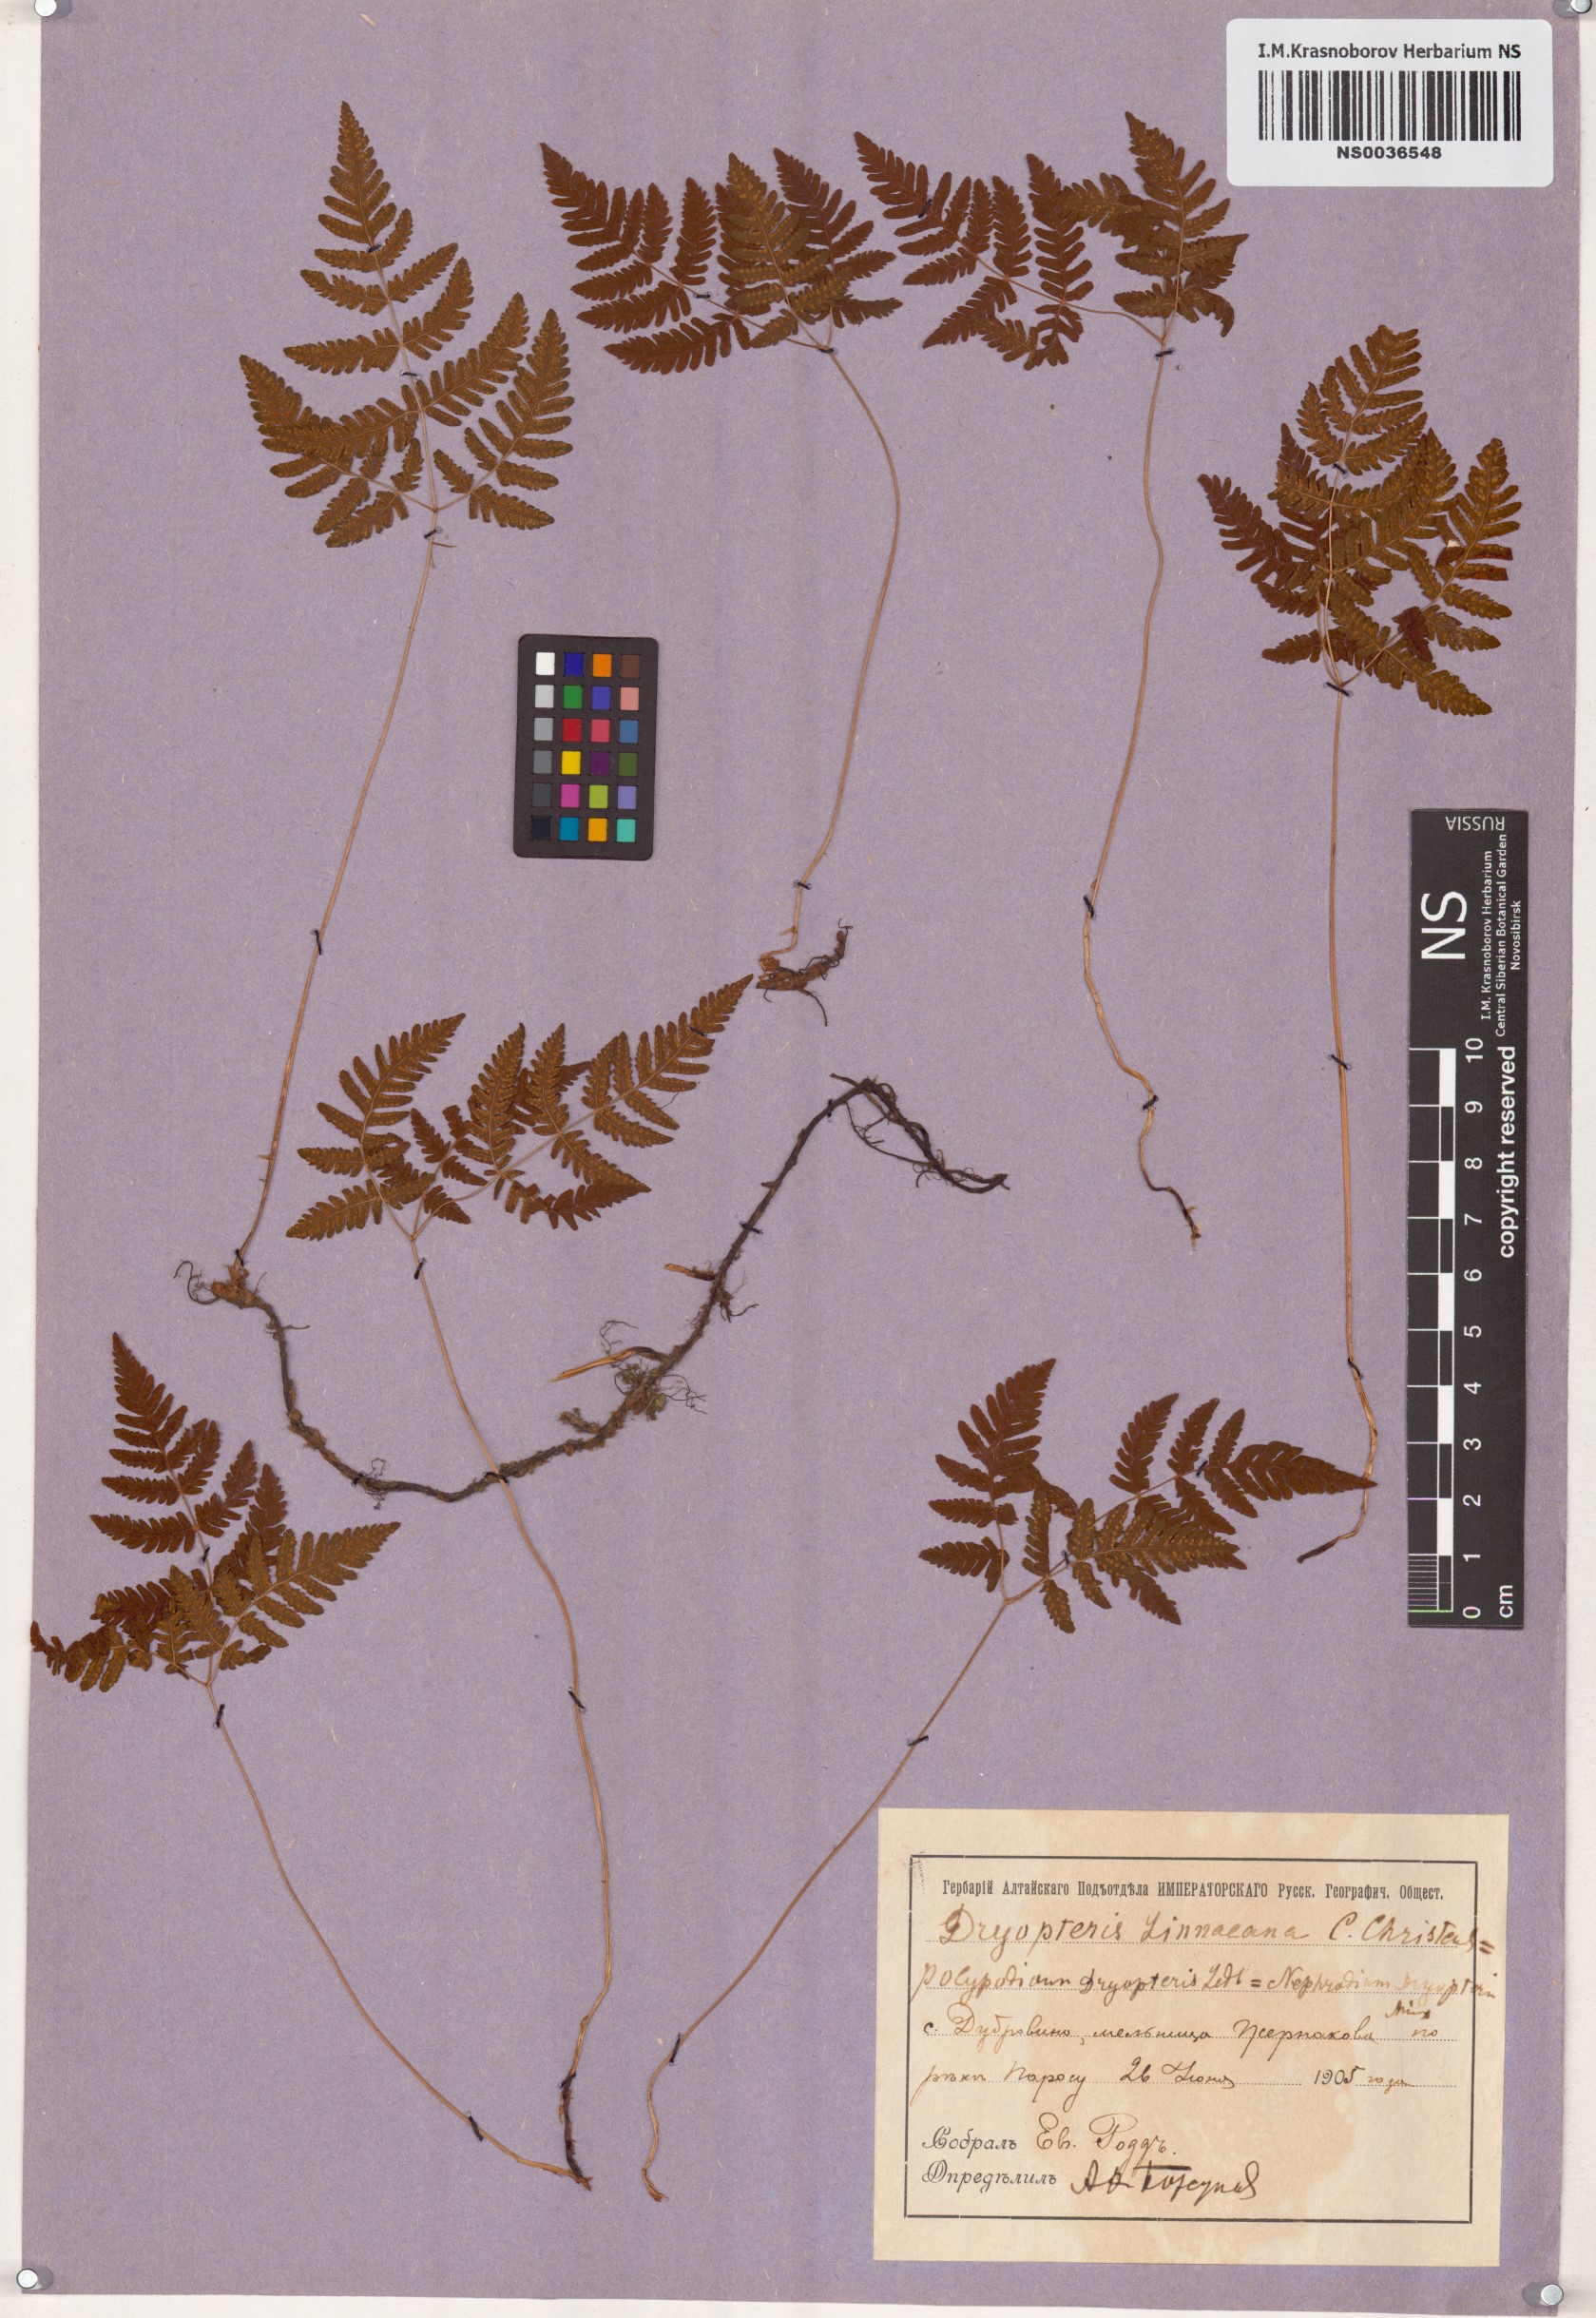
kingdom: Plantae
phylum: Tracheophyta
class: Polypodiopsida
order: Polypodiales
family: Cystopteridaceae
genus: Gymnocarpium
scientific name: Gymnocarpium dryopteris
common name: Oak fern
